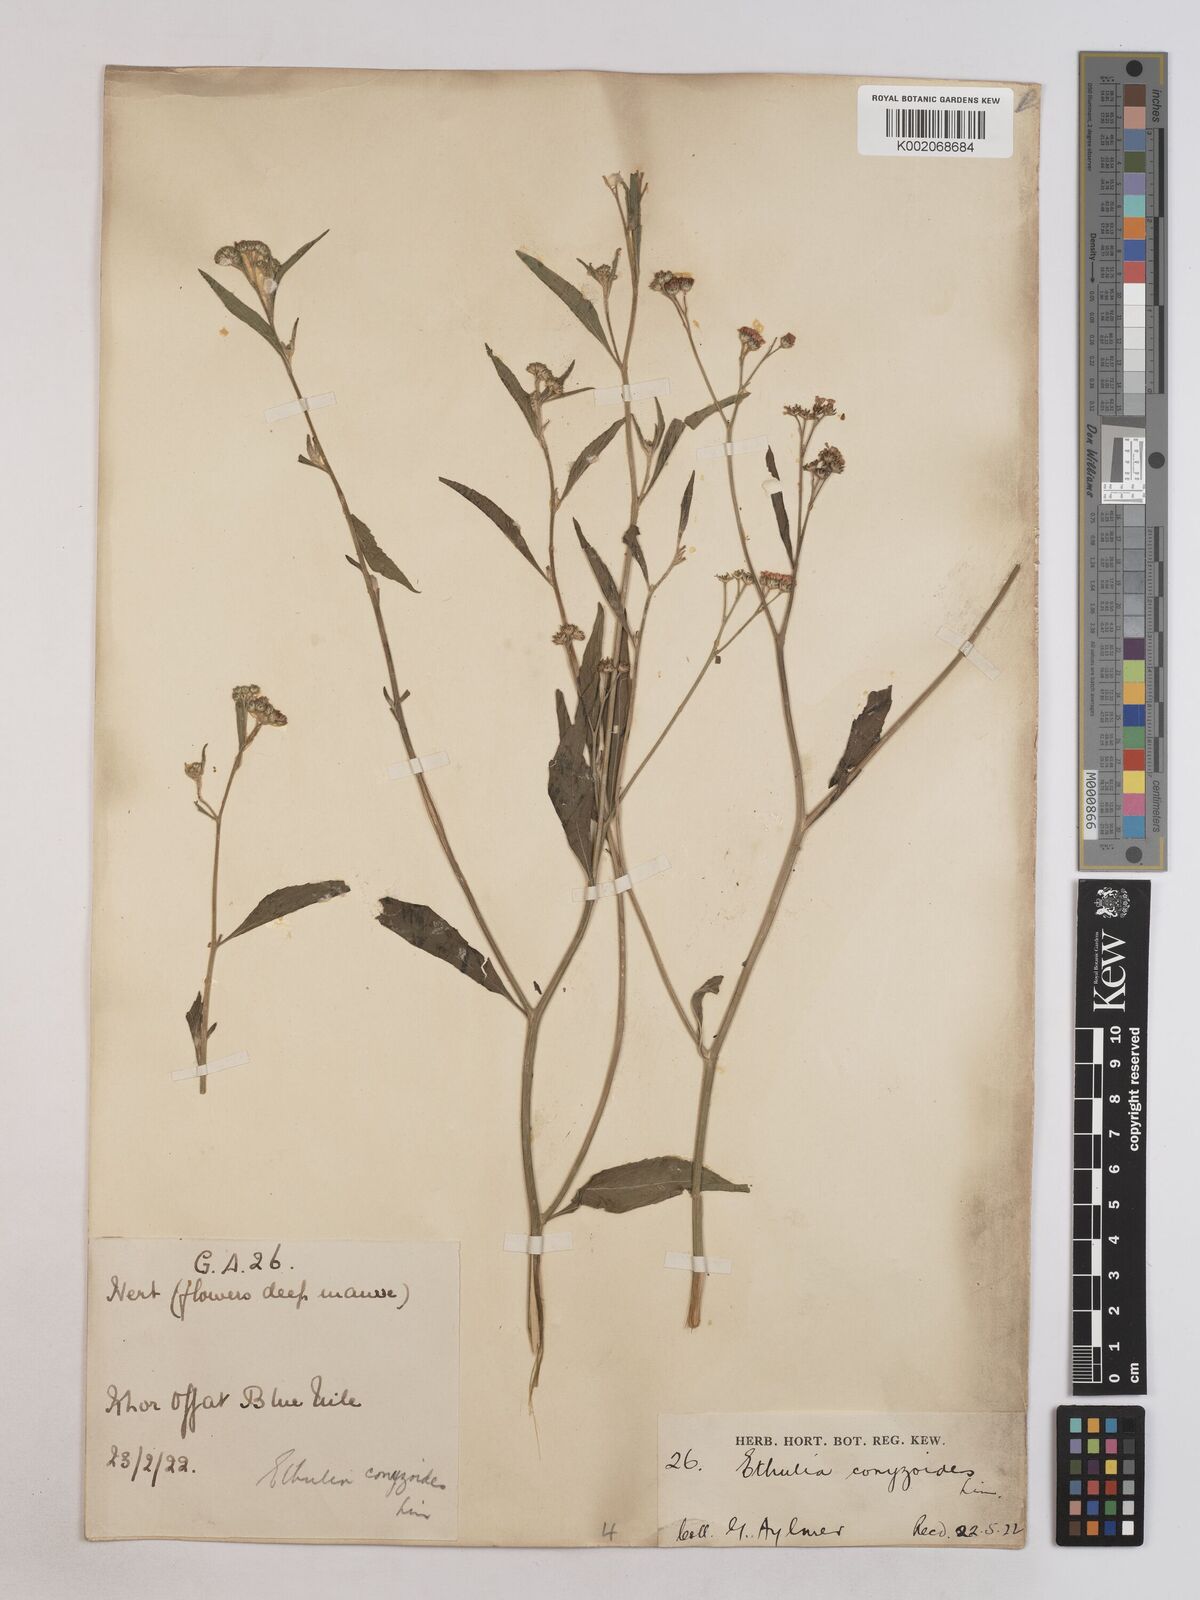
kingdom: Plantae
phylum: Tracheophyta
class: Magnoliopsida
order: Asterales
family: Asteraceae
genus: Ethulia
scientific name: Ethulia gracilis
